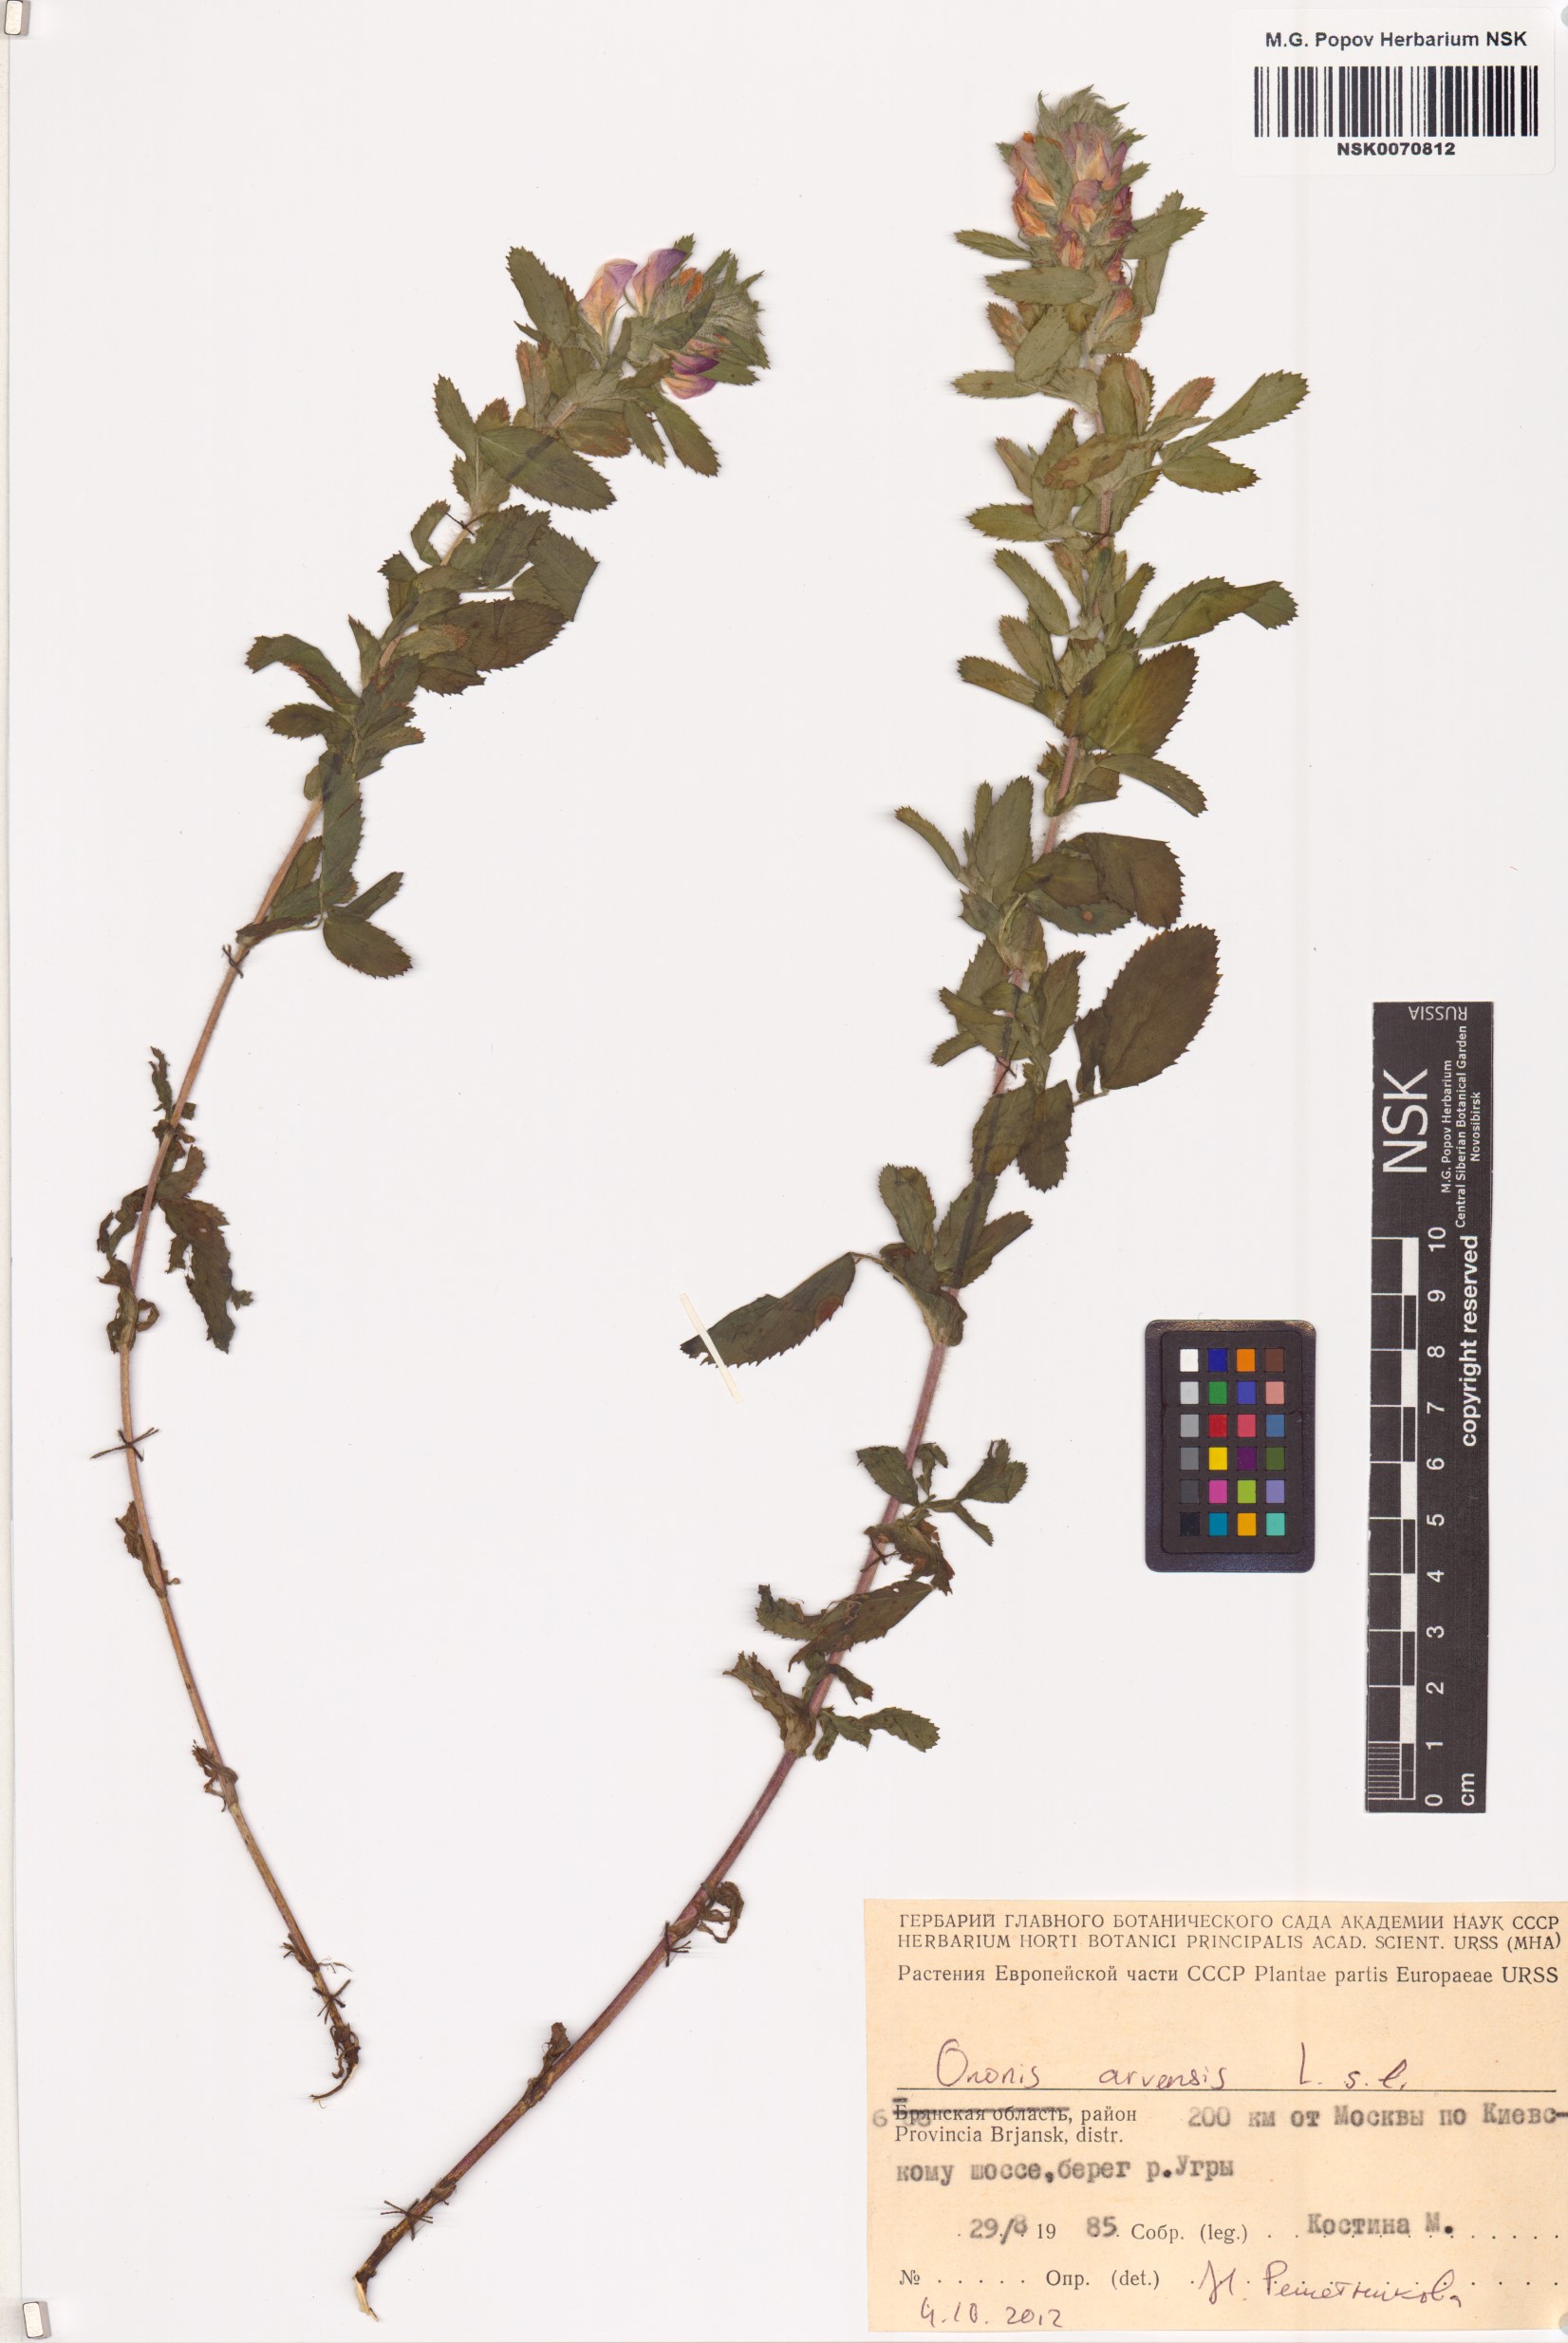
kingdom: Plantae
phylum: Tracheophyta
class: Magnoliopsida
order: Fabales
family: Fabaceae
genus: Ononis
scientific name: Ononis arvensis
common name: Field restharrow
